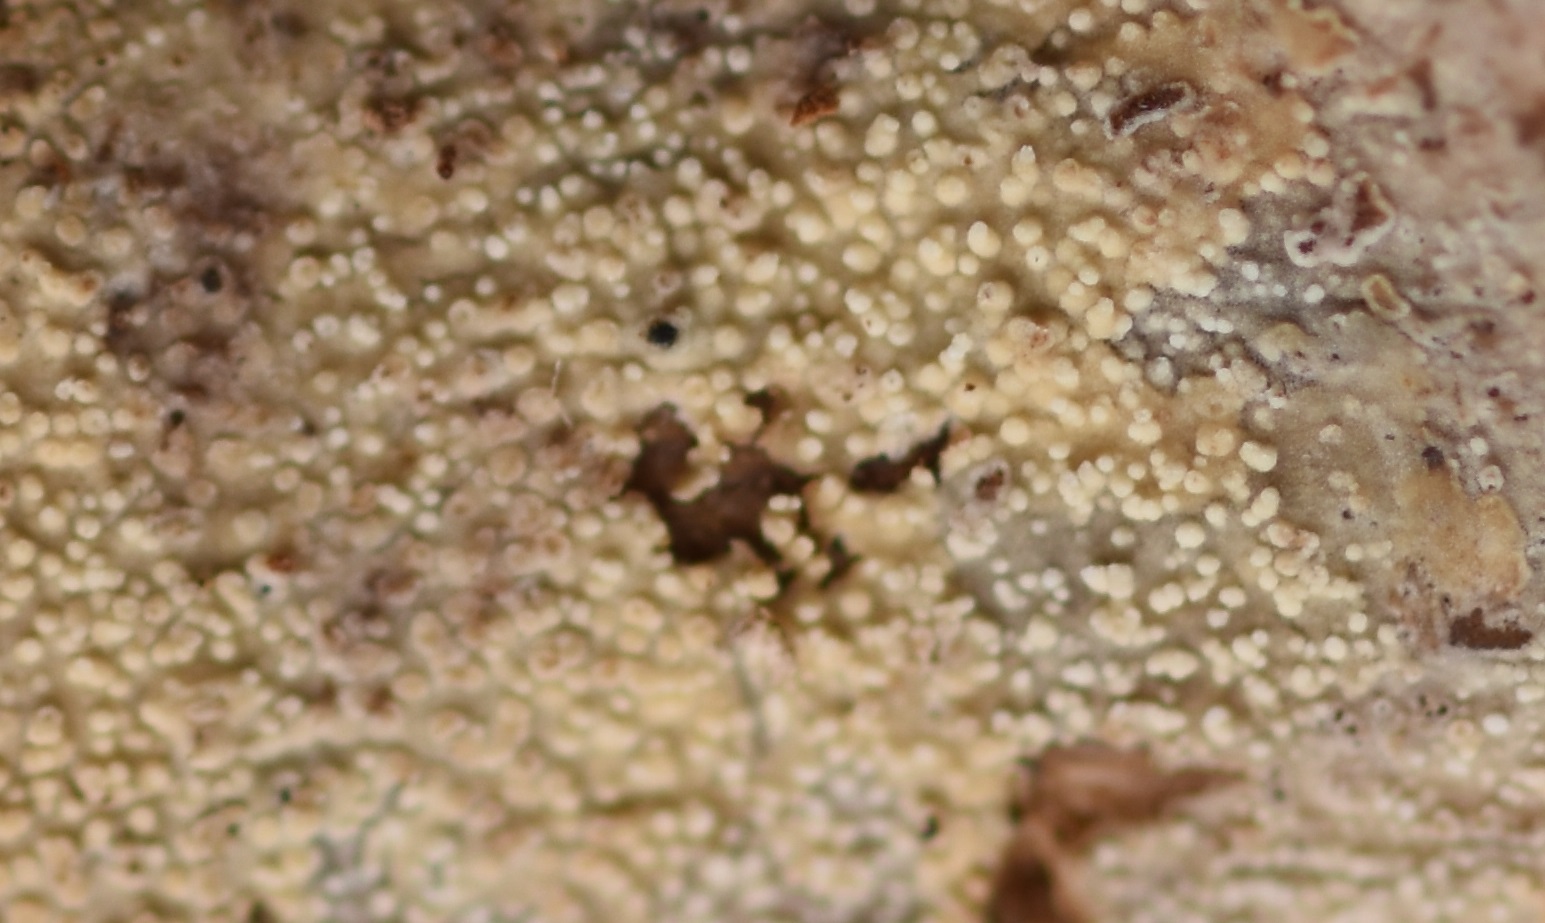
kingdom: Fungi
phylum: Basidiomycota
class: Agaricomycetes
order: Trechisporales
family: Hydnodontaceae
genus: Brevicellicium
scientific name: Brevicellicium olivascens
